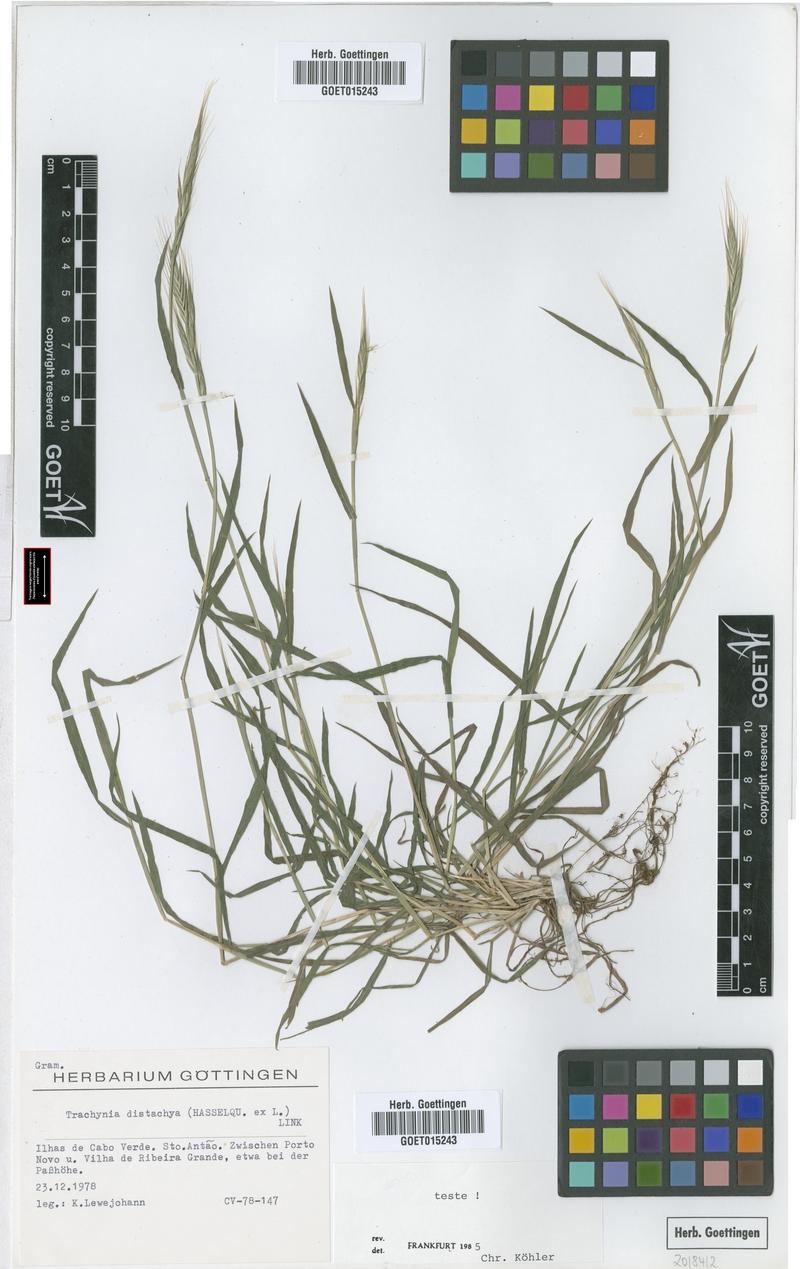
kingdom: Plantae
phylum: Tracheophyta
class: Liliopsida
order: Poales
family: Poaceae
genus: Brachypodium
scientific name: Brachypodium distachyon
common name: Stiff brome
